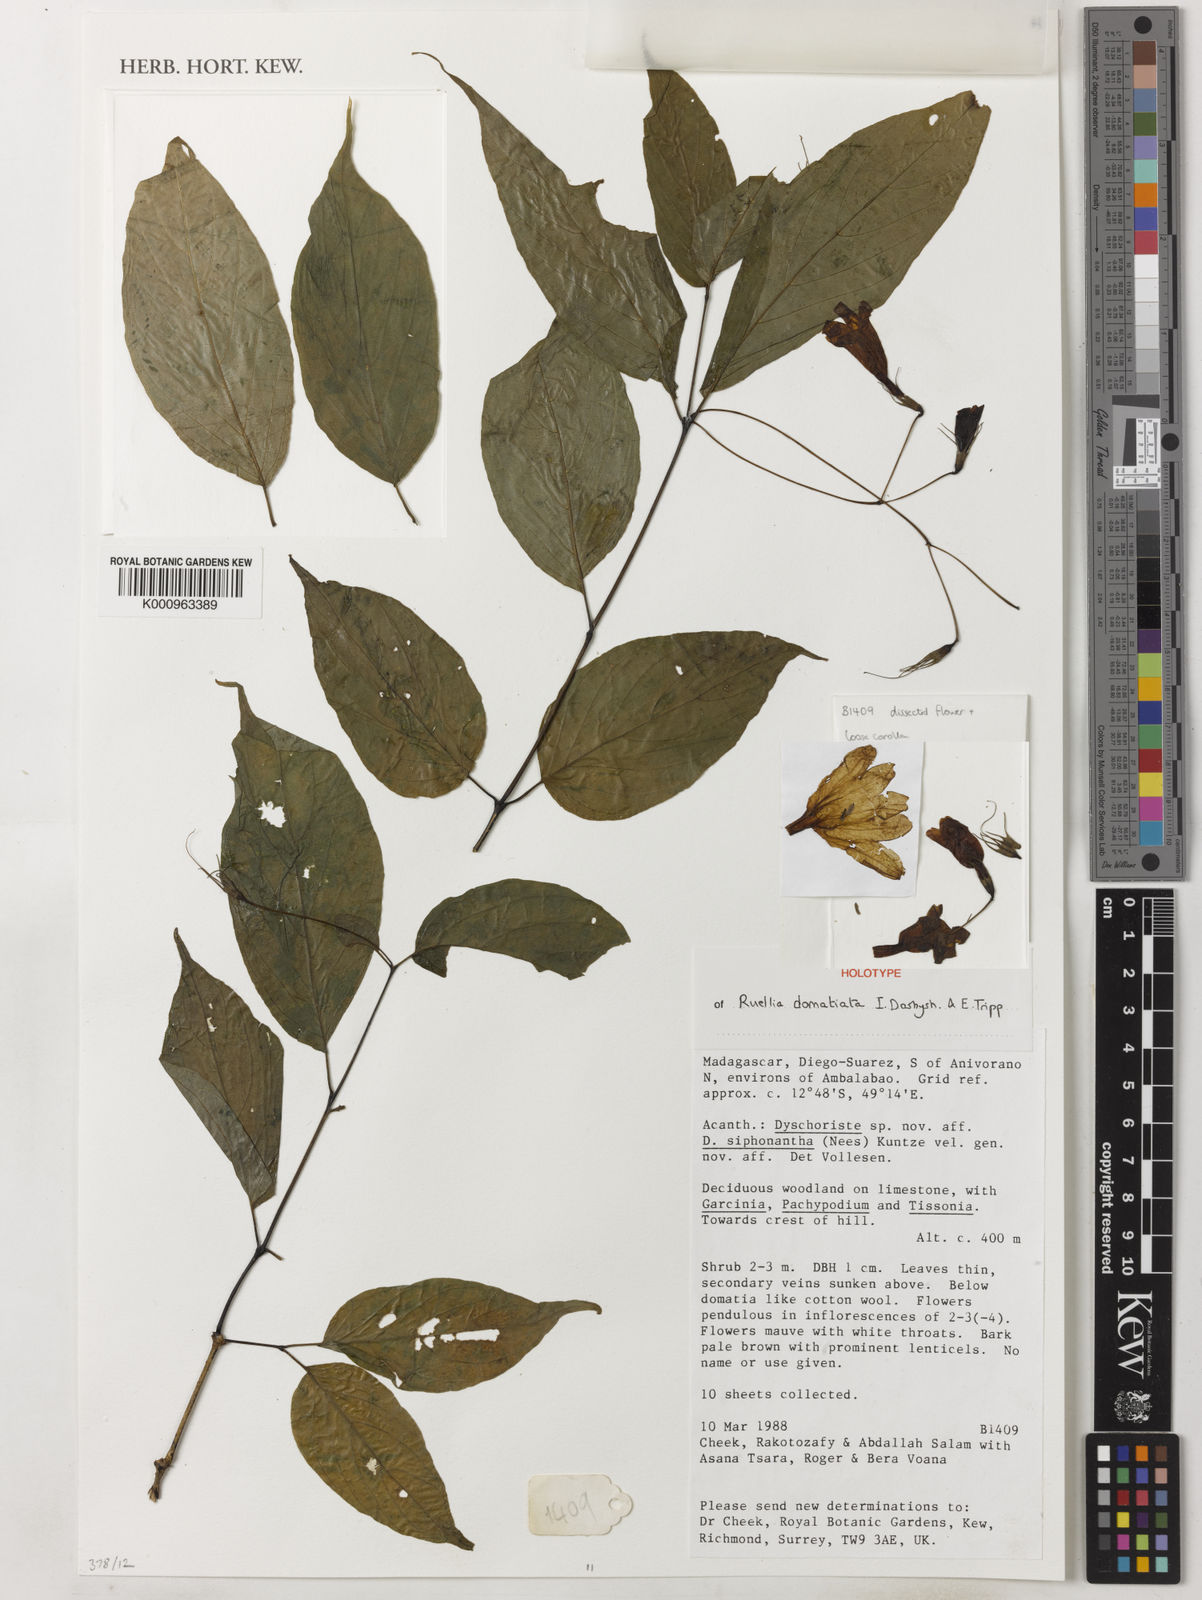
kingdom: Plantae
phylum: Tracheophyta
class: Magnoliopsida
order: Lamiales
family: Acanthaceae
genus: Ruellia
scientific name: Ruellia domatiata
